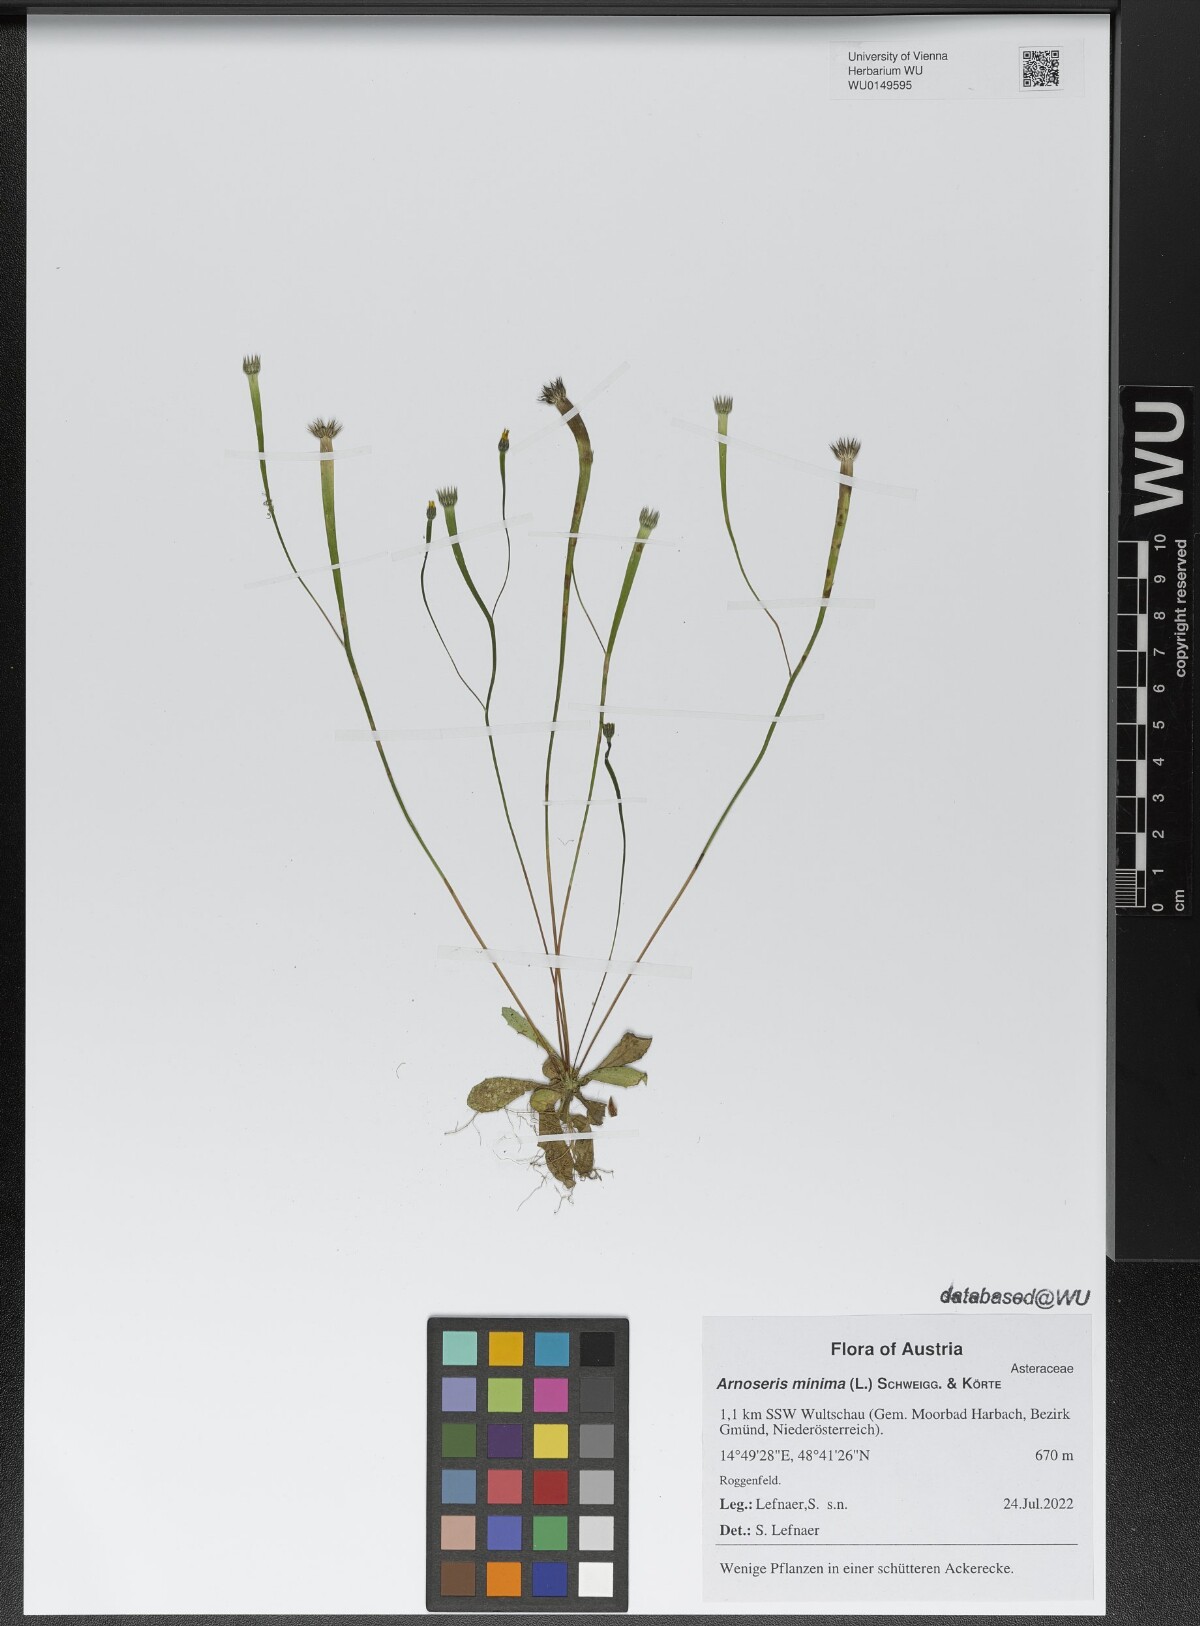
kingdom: Plantae
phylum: Tracheophyta
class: Magnoliopsida
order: Asterales
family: Asteraceae
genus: Arnoseris
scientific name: Arnoseris minima
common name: Lamb's succory
